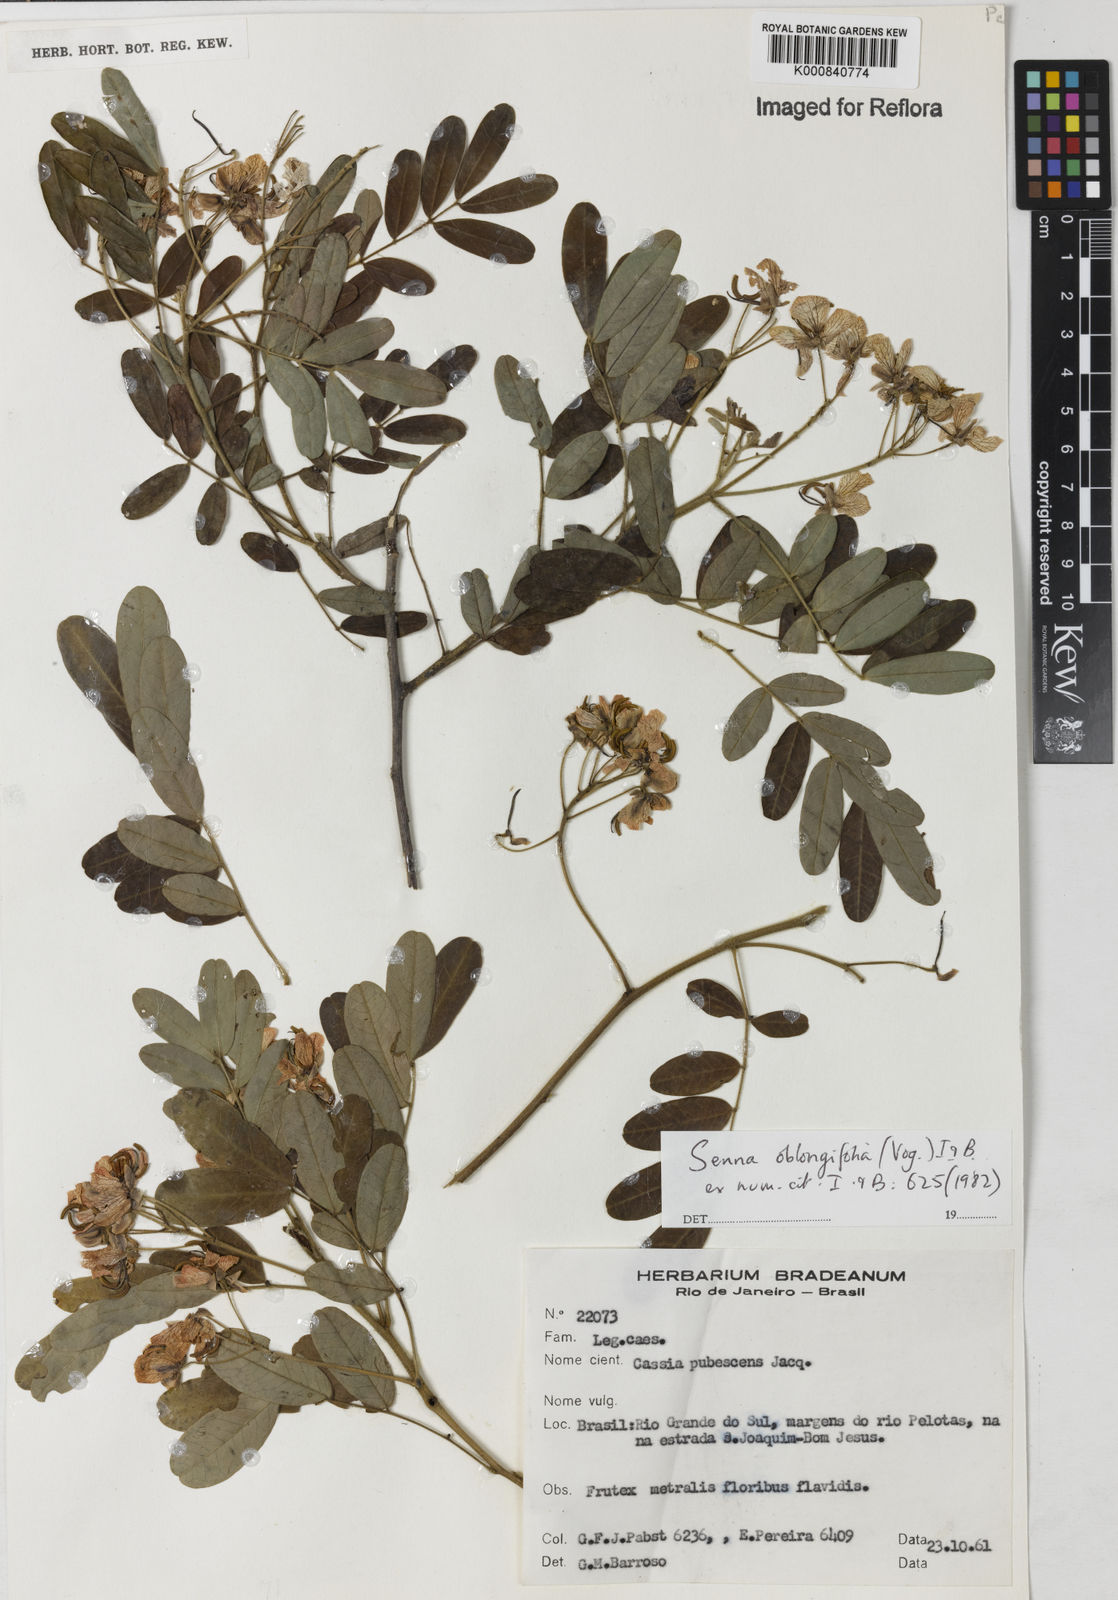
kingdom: Plantae
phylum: Tracheophyta
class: Magnoliopsida
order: Fabales
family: Fabaceae
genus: Senna
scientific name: Senna oblongifolia
